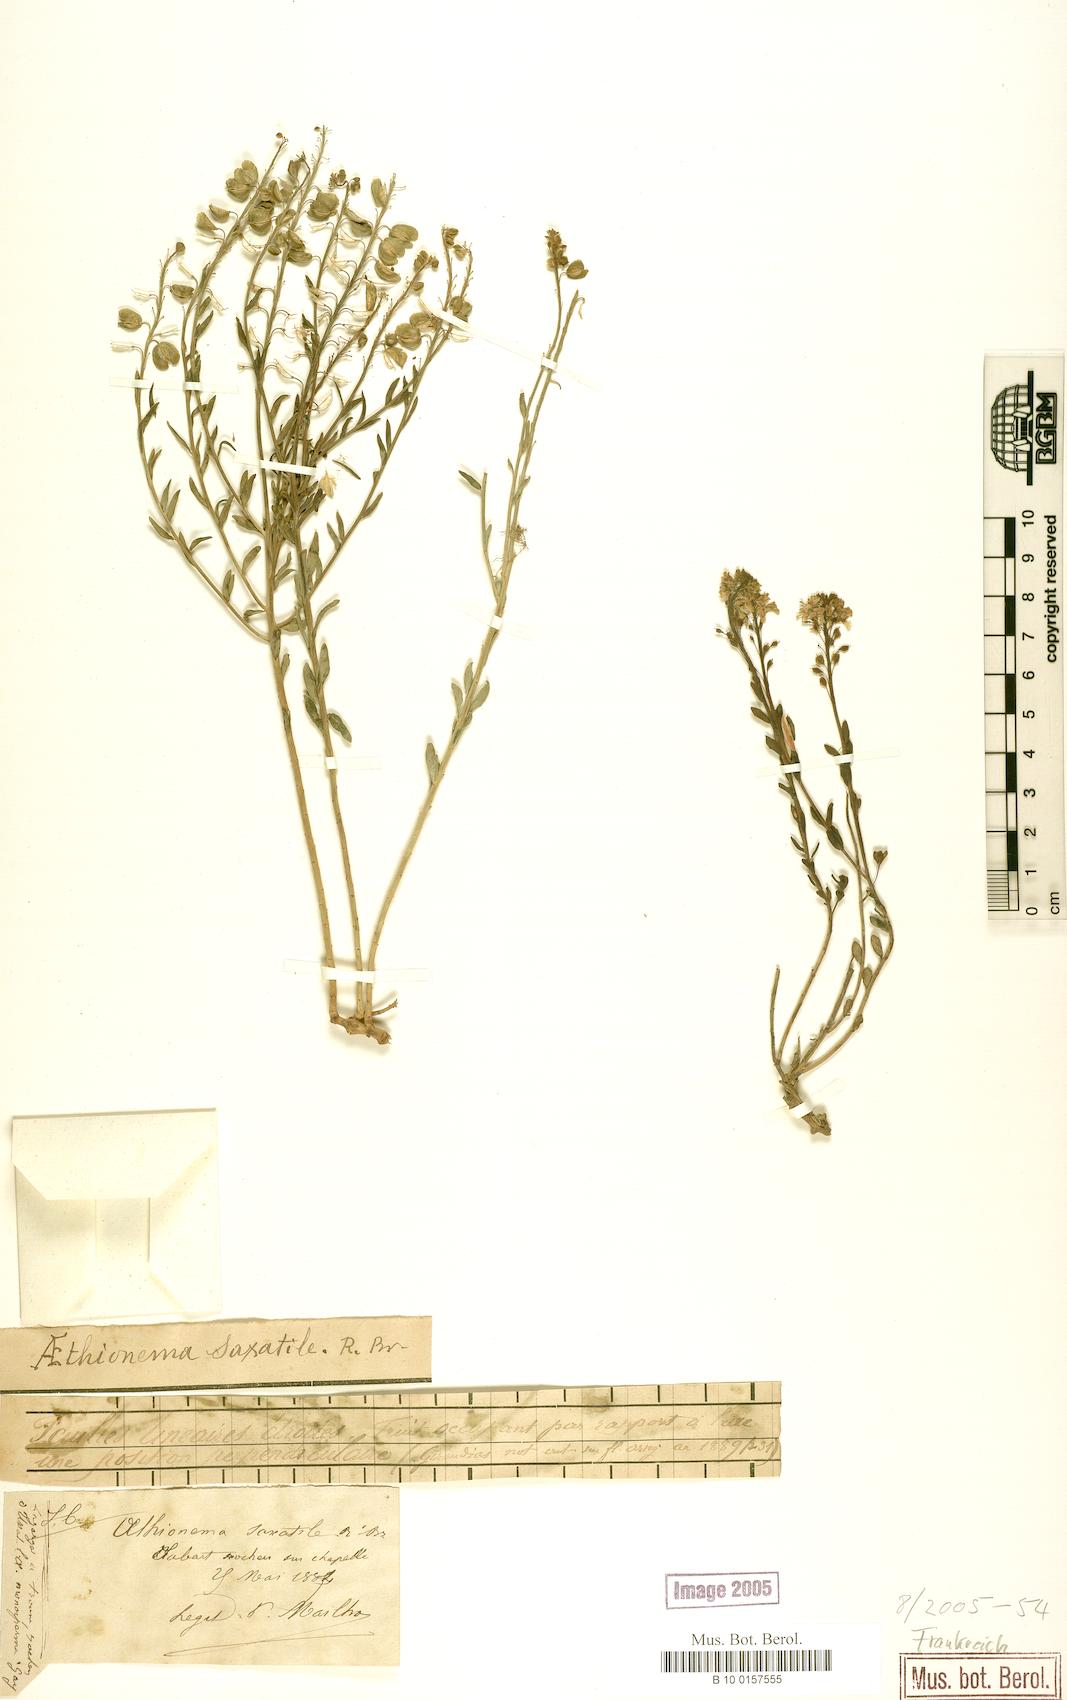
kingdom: Plantae
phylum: Tracheophyta
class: Magnoliopsida
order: Brassicales
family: Brassicaceae
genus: Aethionema
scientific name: Aethionema saxatile
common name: Burnt candytuft
